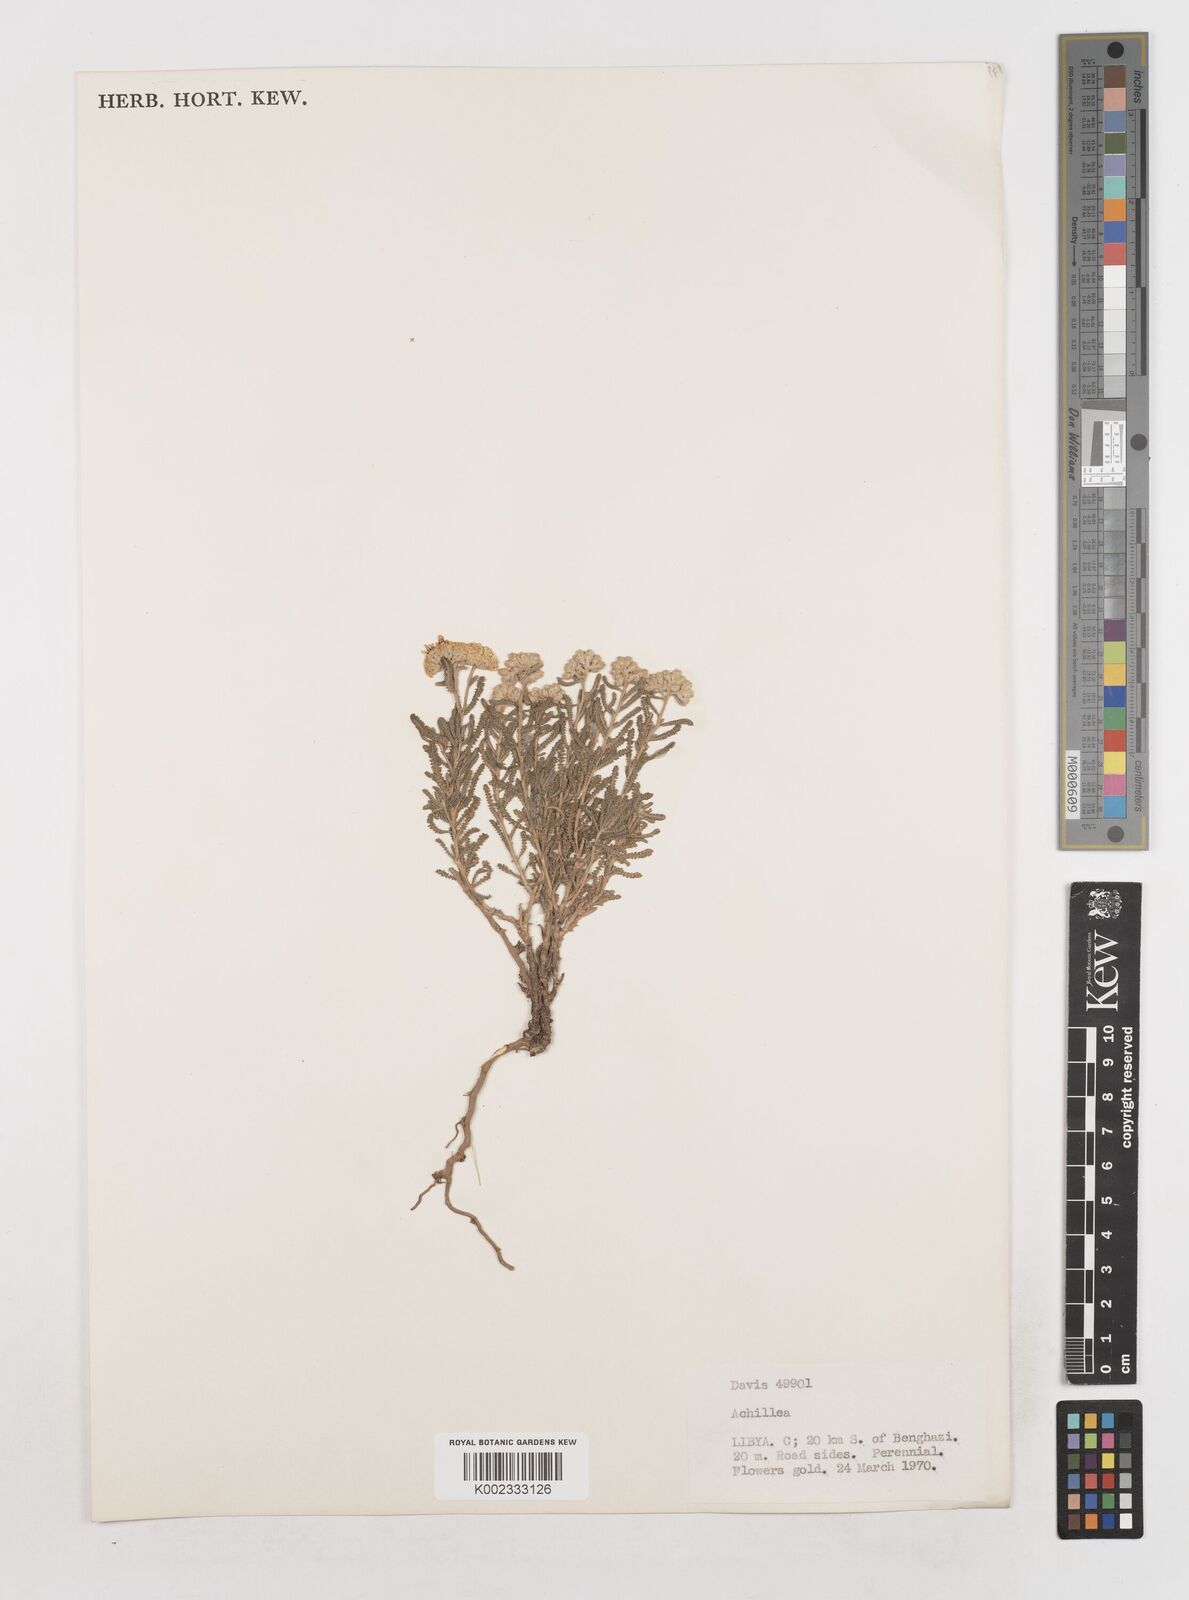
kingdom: Plantae
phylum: Tracheophyta
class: Magnoliopsida
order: Asterales
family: Asteraceae
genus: Achillea
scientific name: Achillea tenuifolia
